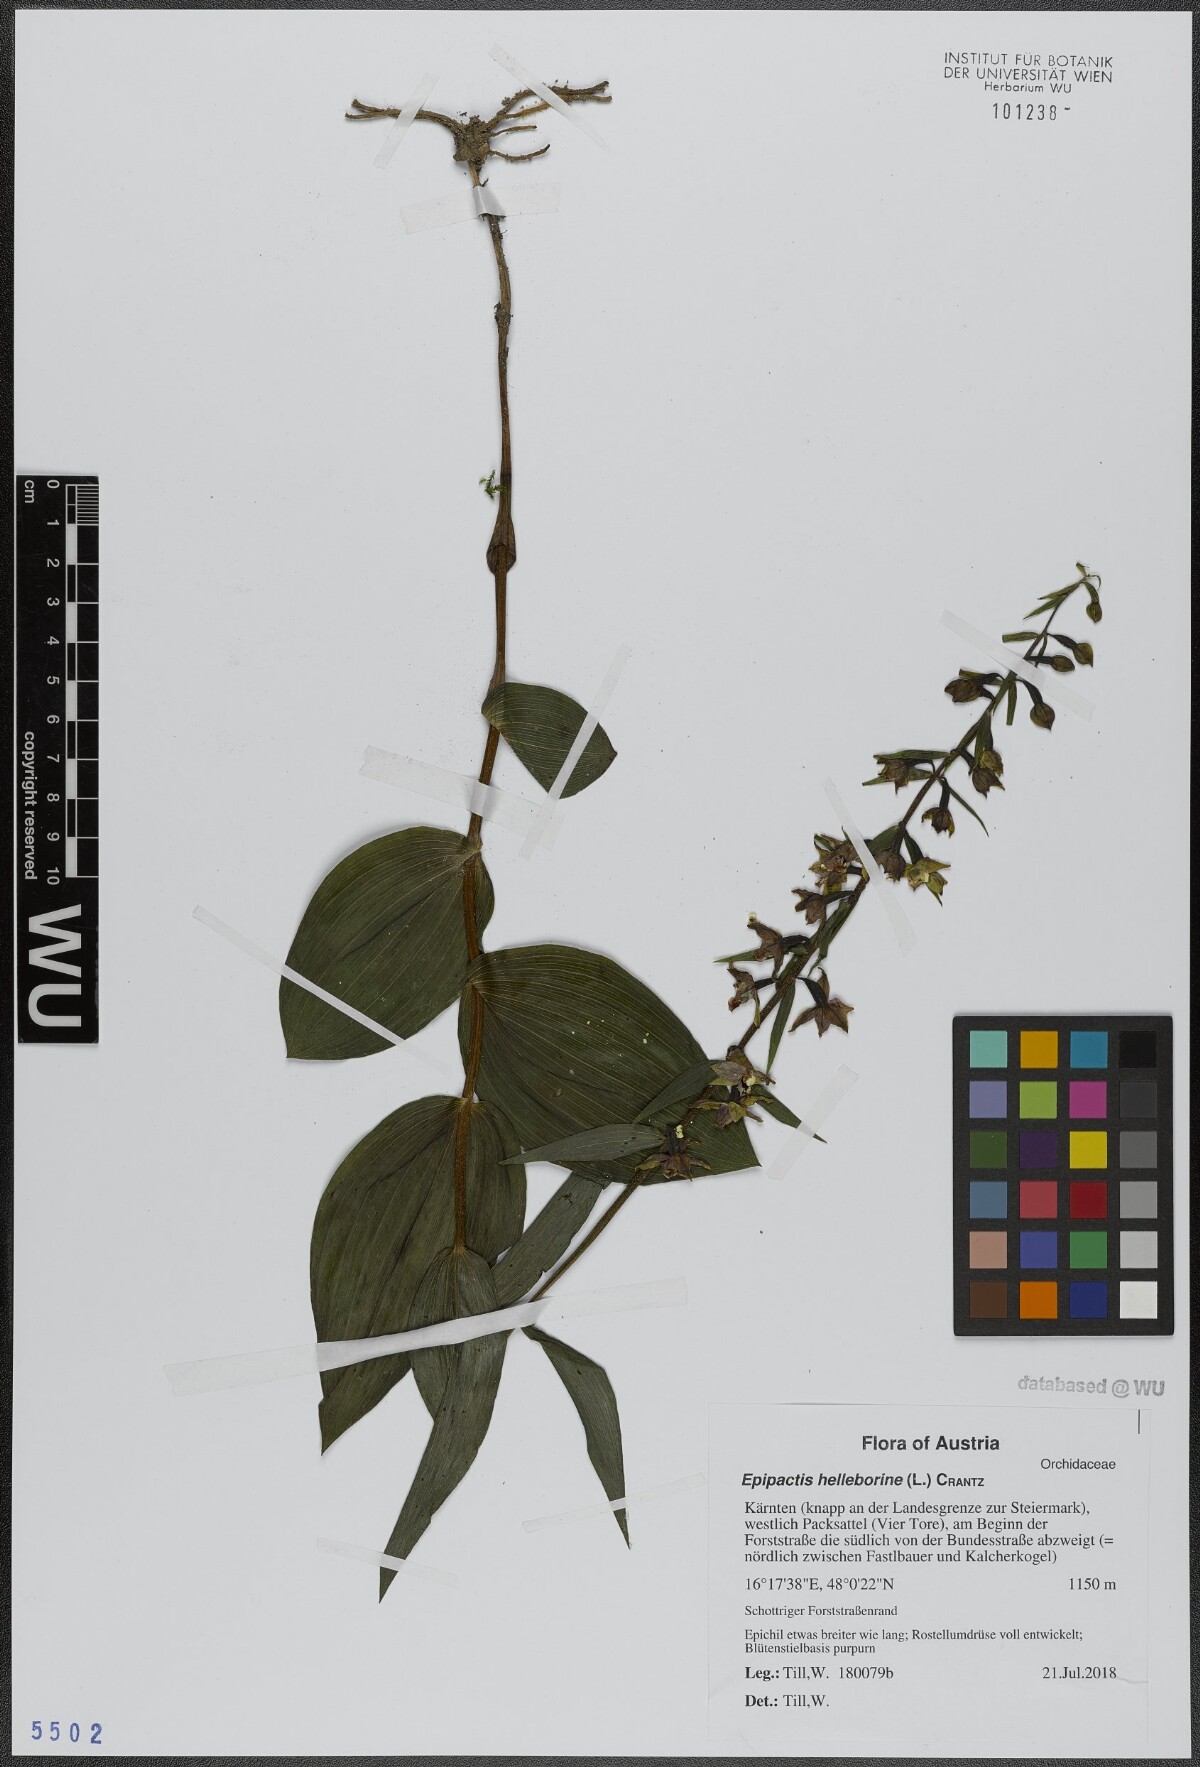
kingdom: Plantae
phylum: Tracheophyta
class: Liliopsida
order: Asparagales
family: Orchidaceae
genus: Epipactis
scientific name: Epipactis helleborine
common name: Broad-leaved helleborine
